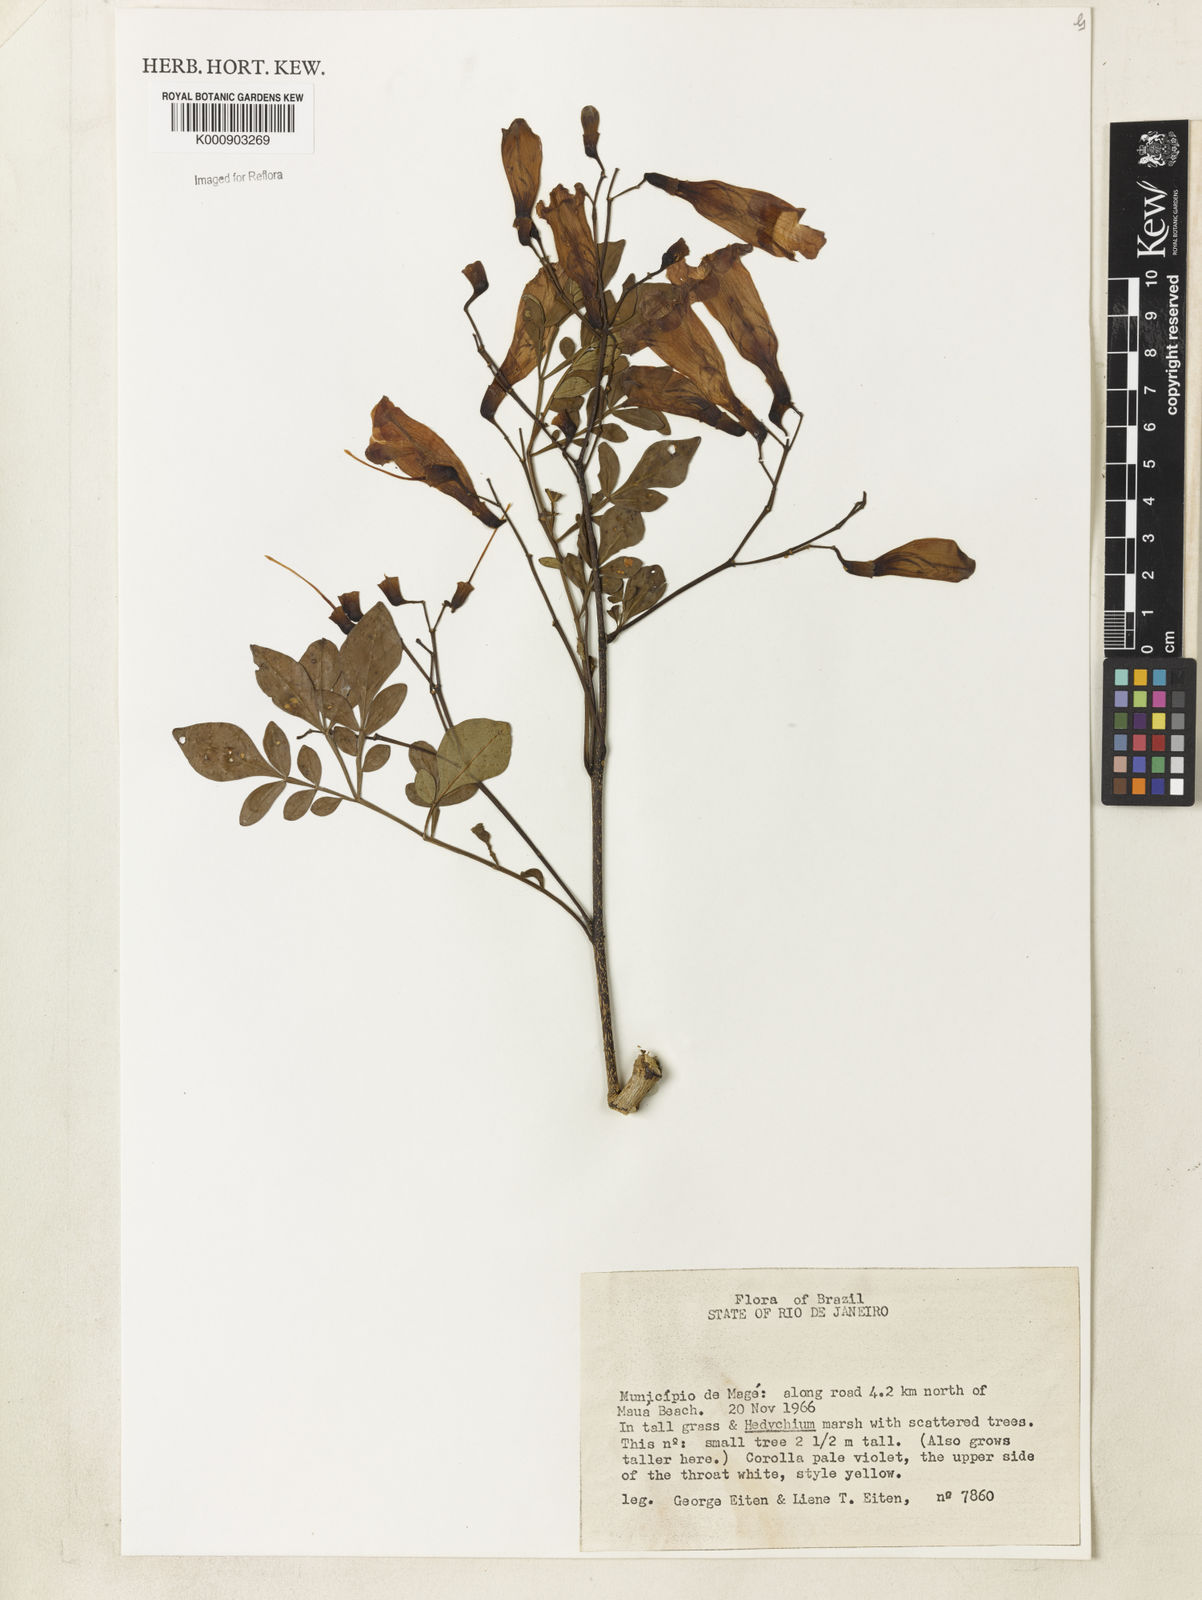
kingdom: Plantae
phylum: Tracheophyta
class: Magnoliopsida
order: Lamiales
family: Bignoniaceae
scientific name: Bignoniaceae
